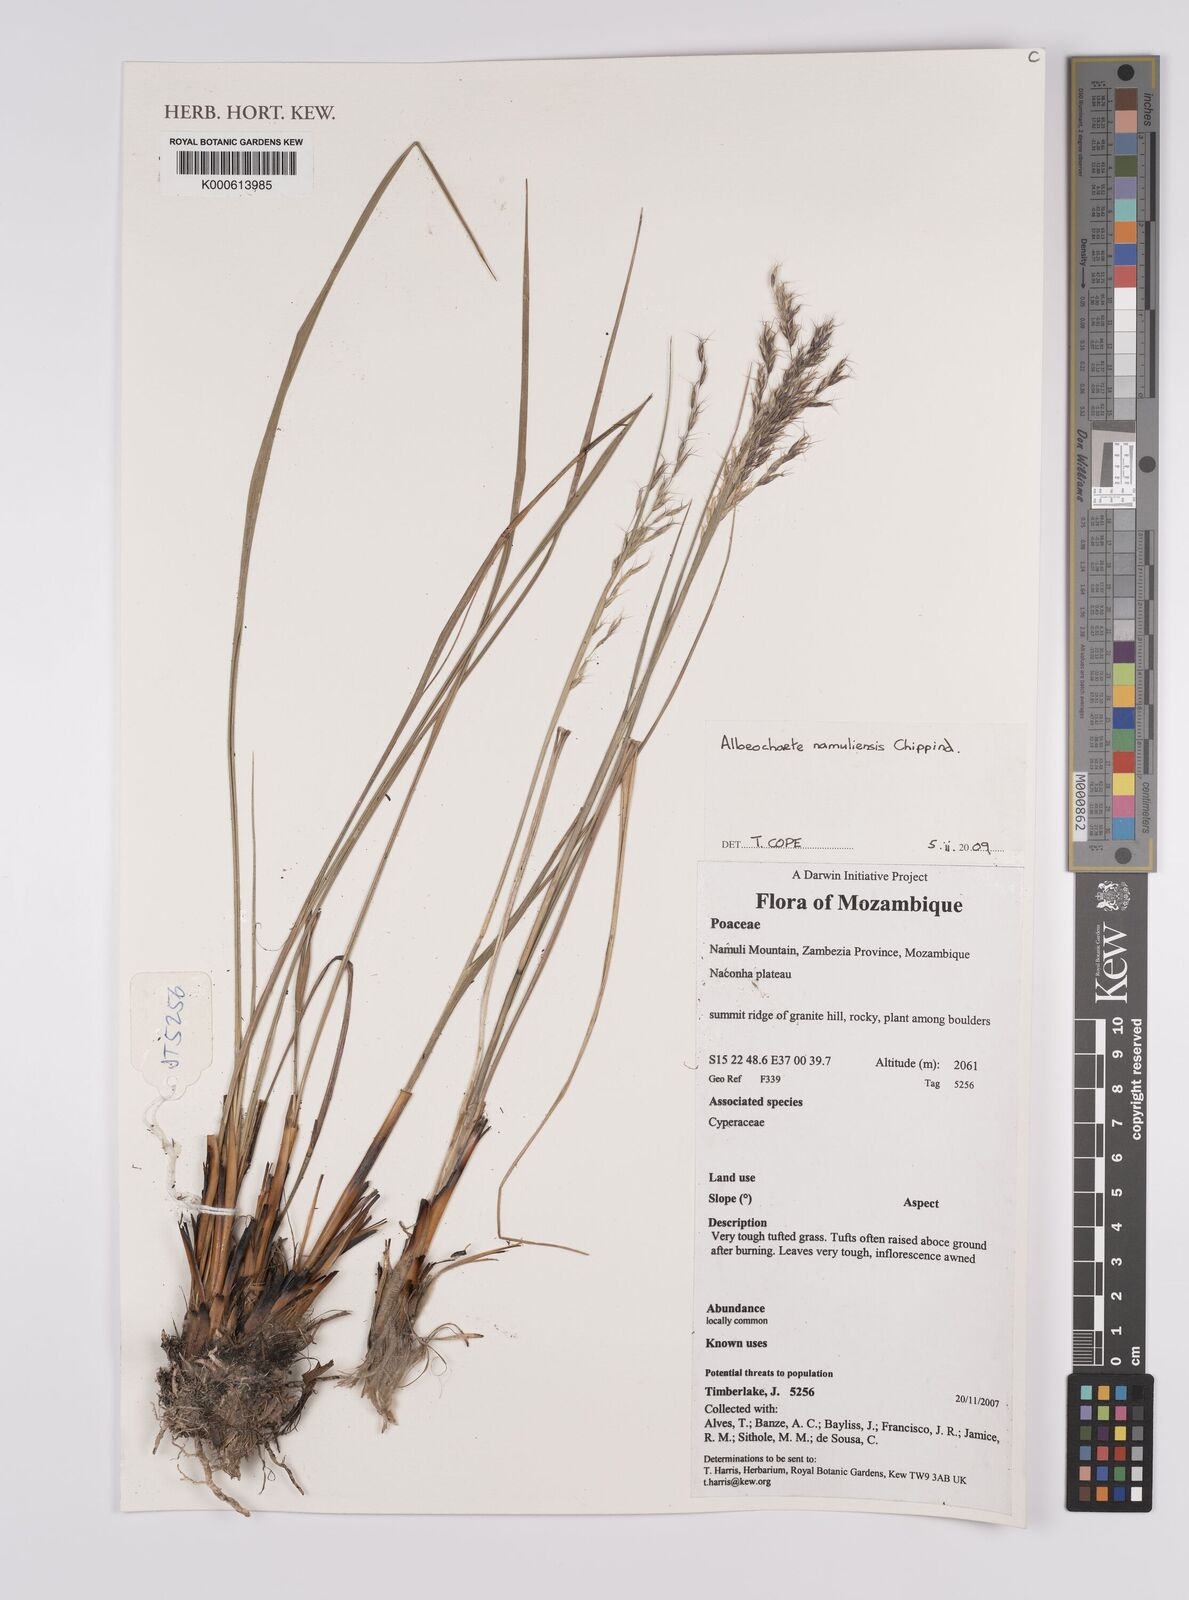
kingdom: Plantae
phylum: Tracheophyta
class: Liliopsida
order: Poales
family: Poaceae
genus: Alloeochaete
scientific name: Alloeochaete namuliensis
